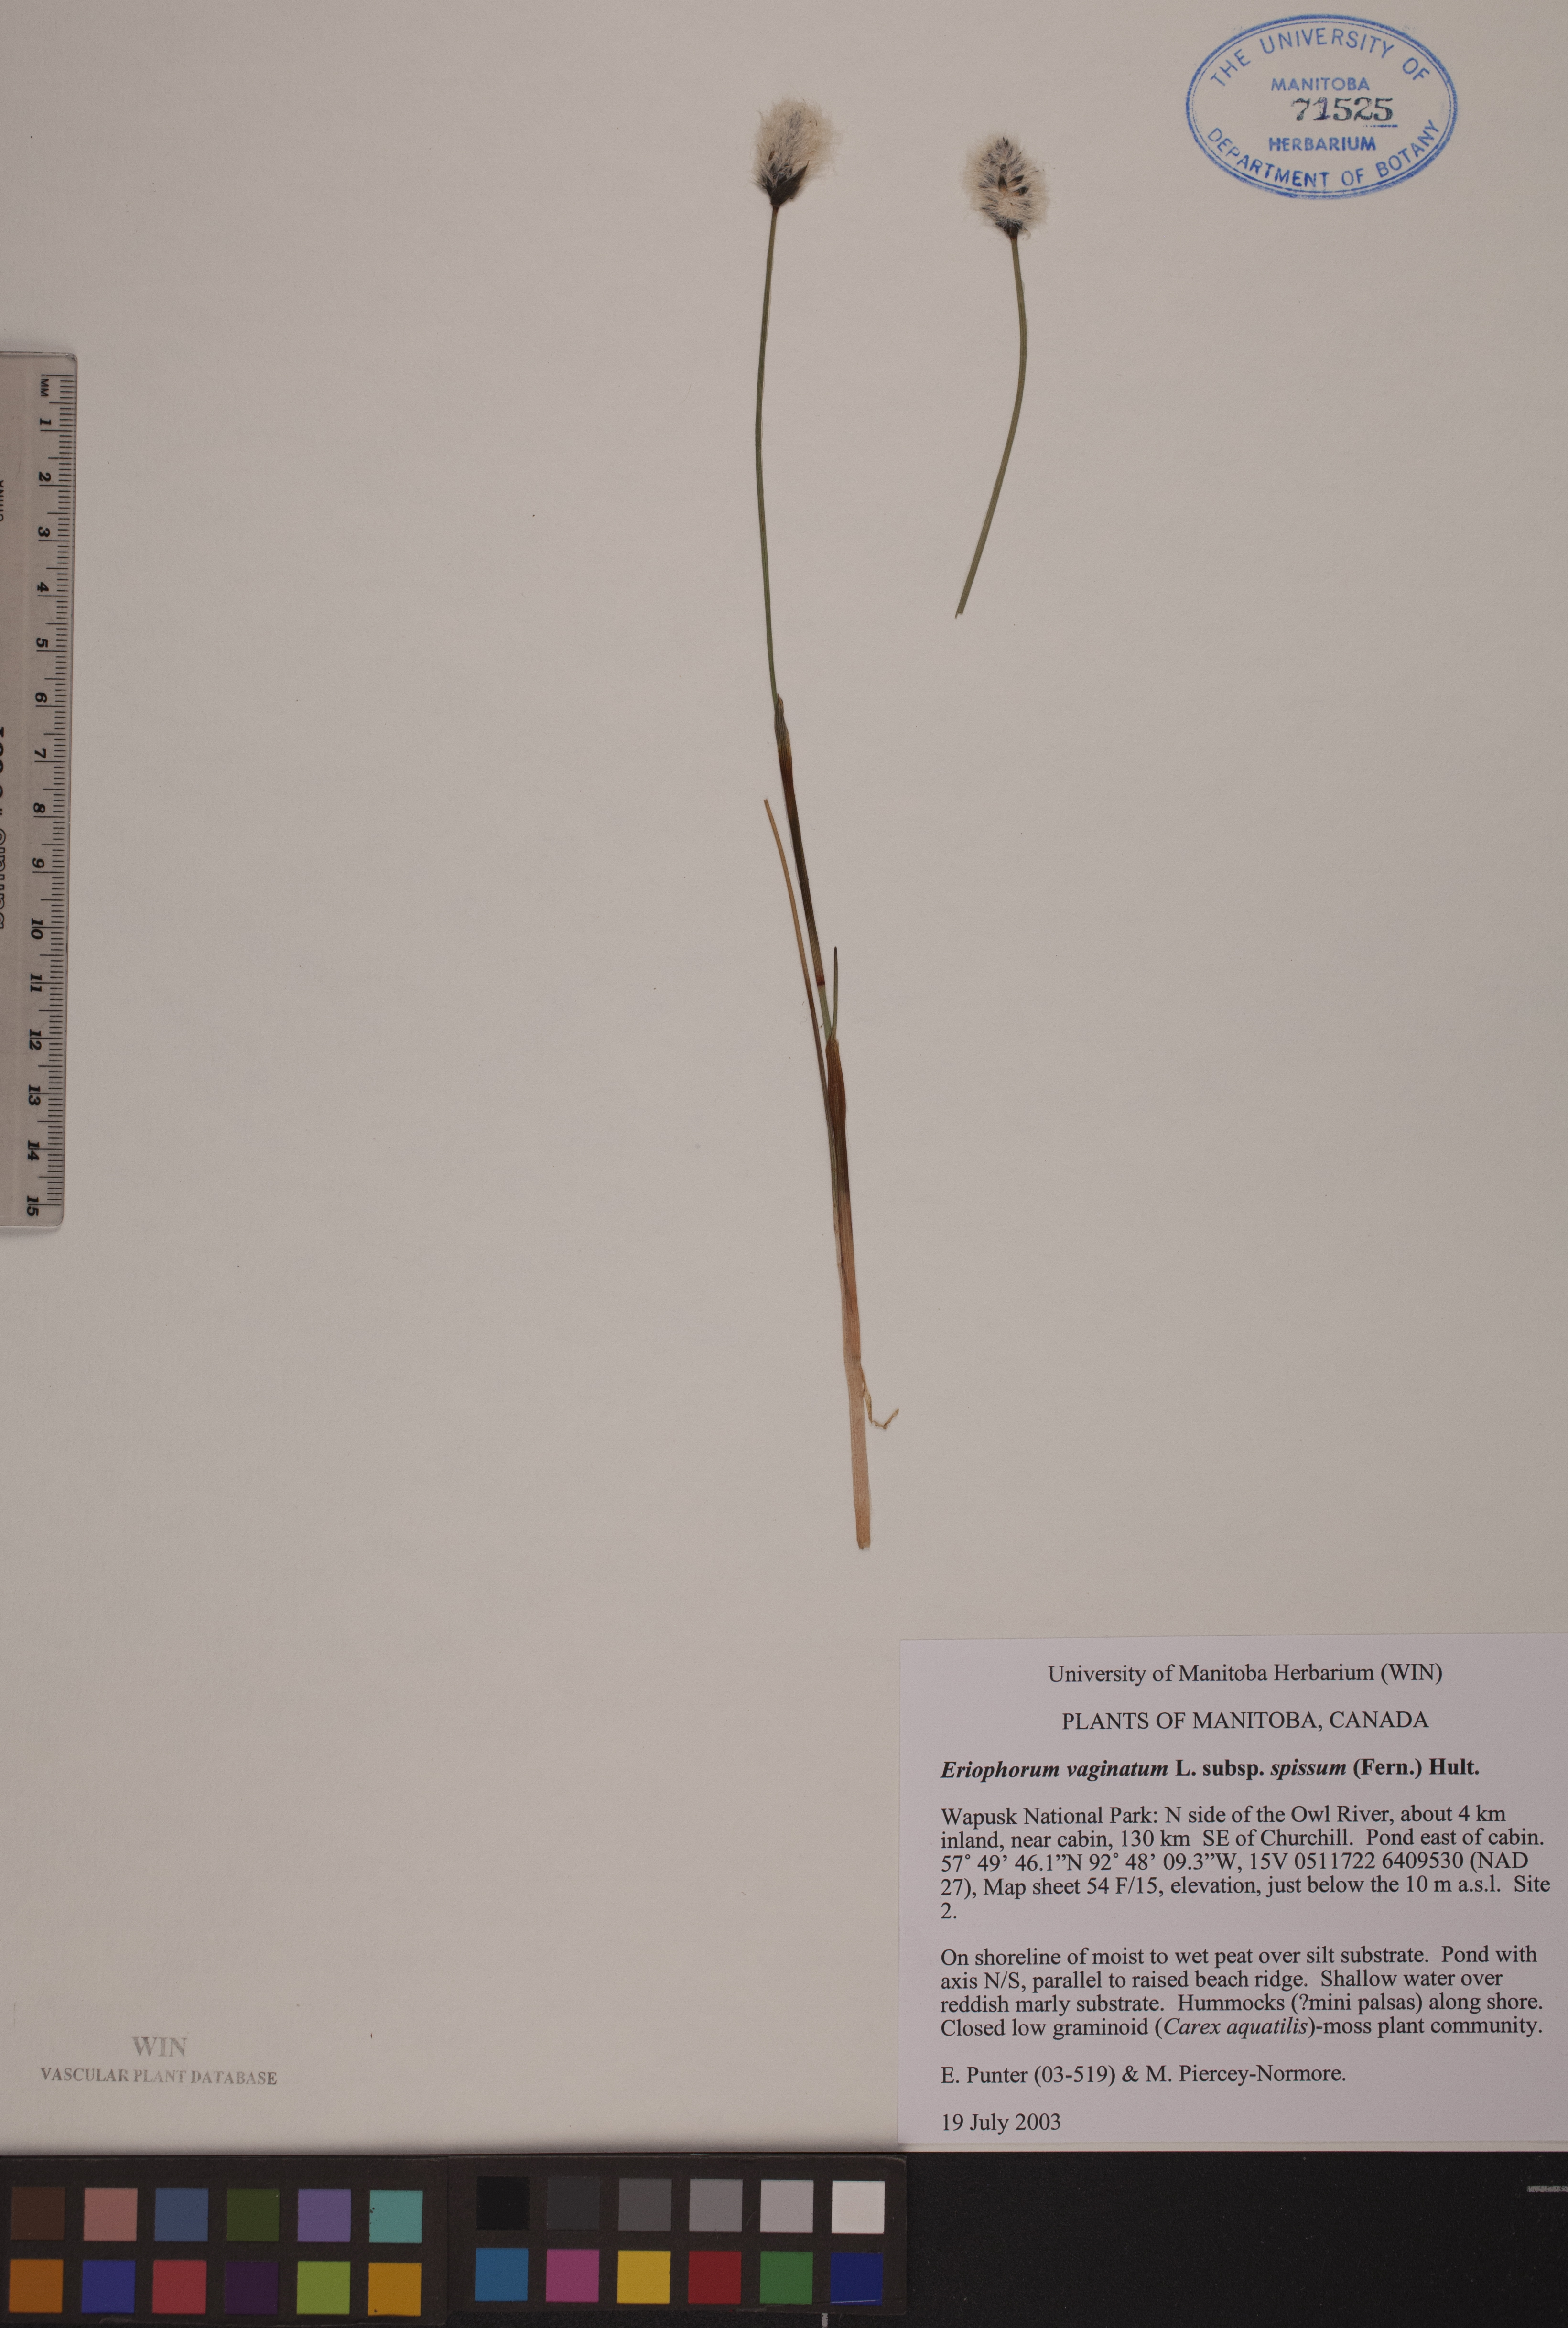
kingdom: Plantae
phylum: Tracheophyta
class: Liliopsida
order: Poales
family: Cyperaceae
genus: Eriophorum
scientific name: Eriophorum vaginatum
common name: Hare's-tail cottongrass
